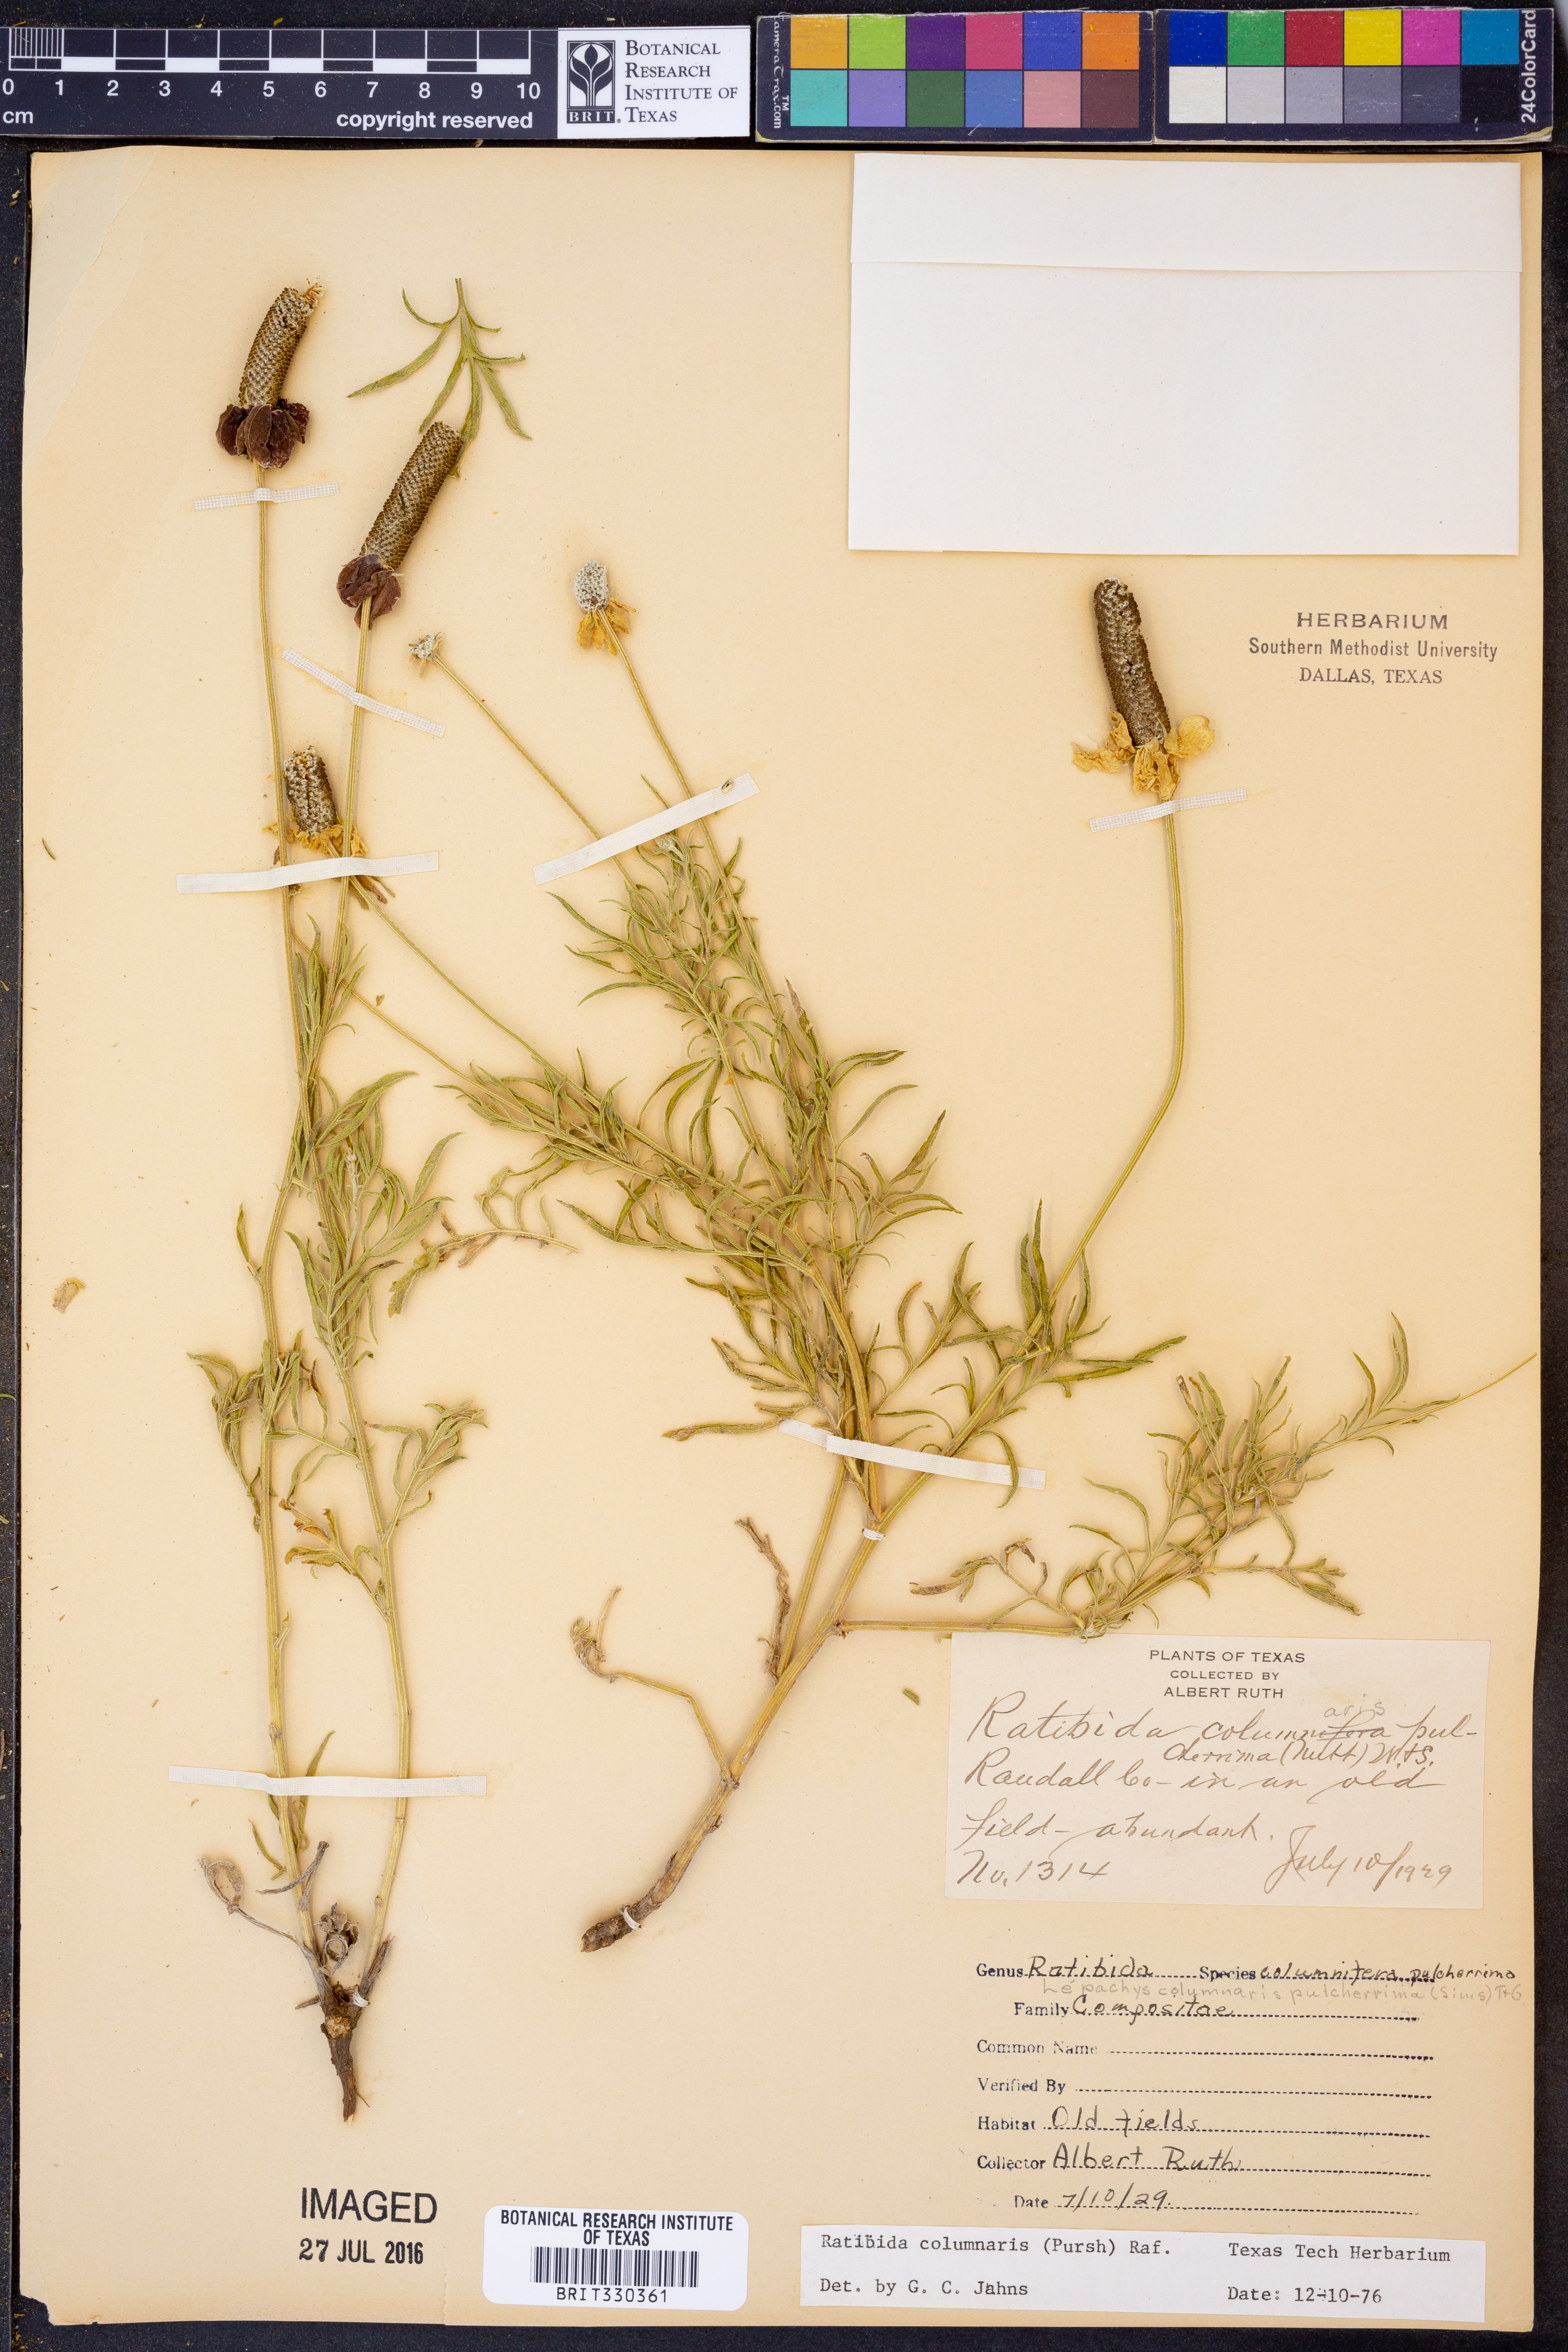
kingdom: Plantae
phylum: Tracheophyta
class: Magnoliopsida
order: Asterales
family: Asteraceae
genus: Ratibida
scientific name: Ratibida columnifera
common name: Prairie coneflower
